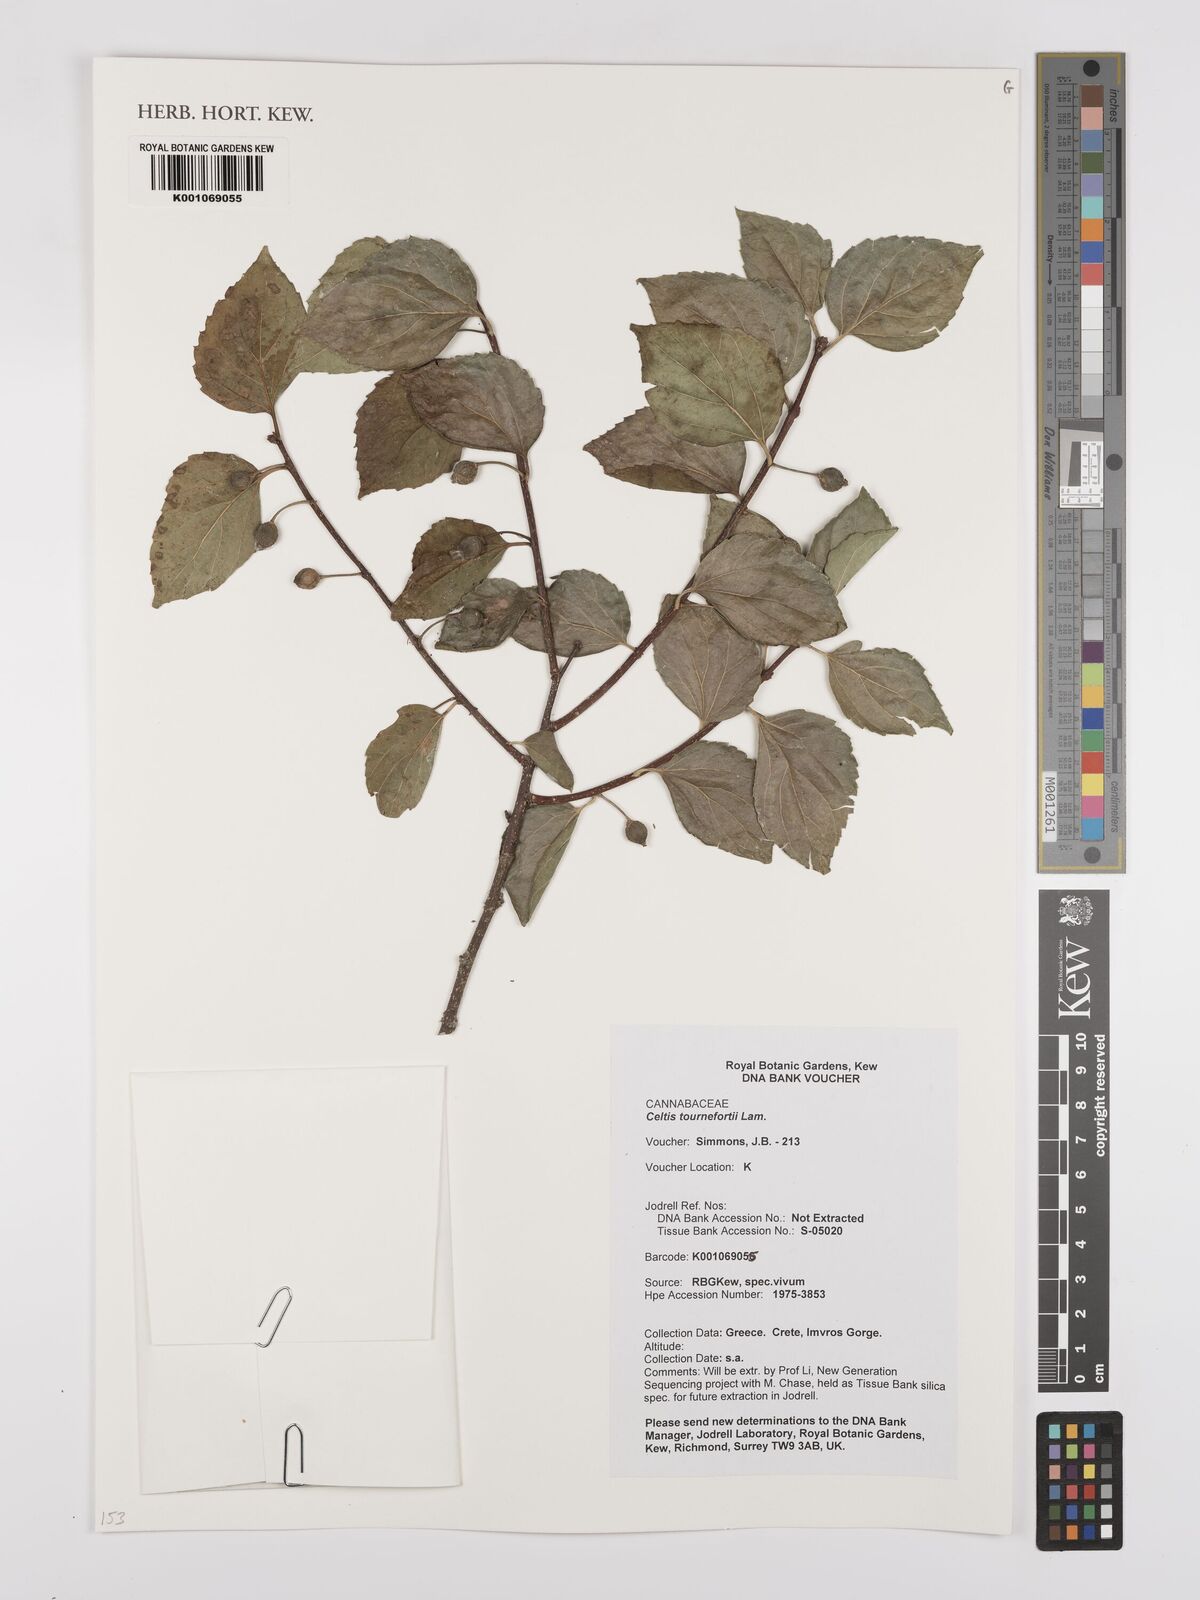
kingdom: Plantae
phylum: Tracheophyta
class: Magnoliopsida
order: Rosales
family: Cannabaceae
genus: Celtis
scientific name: Celtis tournefortii
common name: Oriental hackberry
